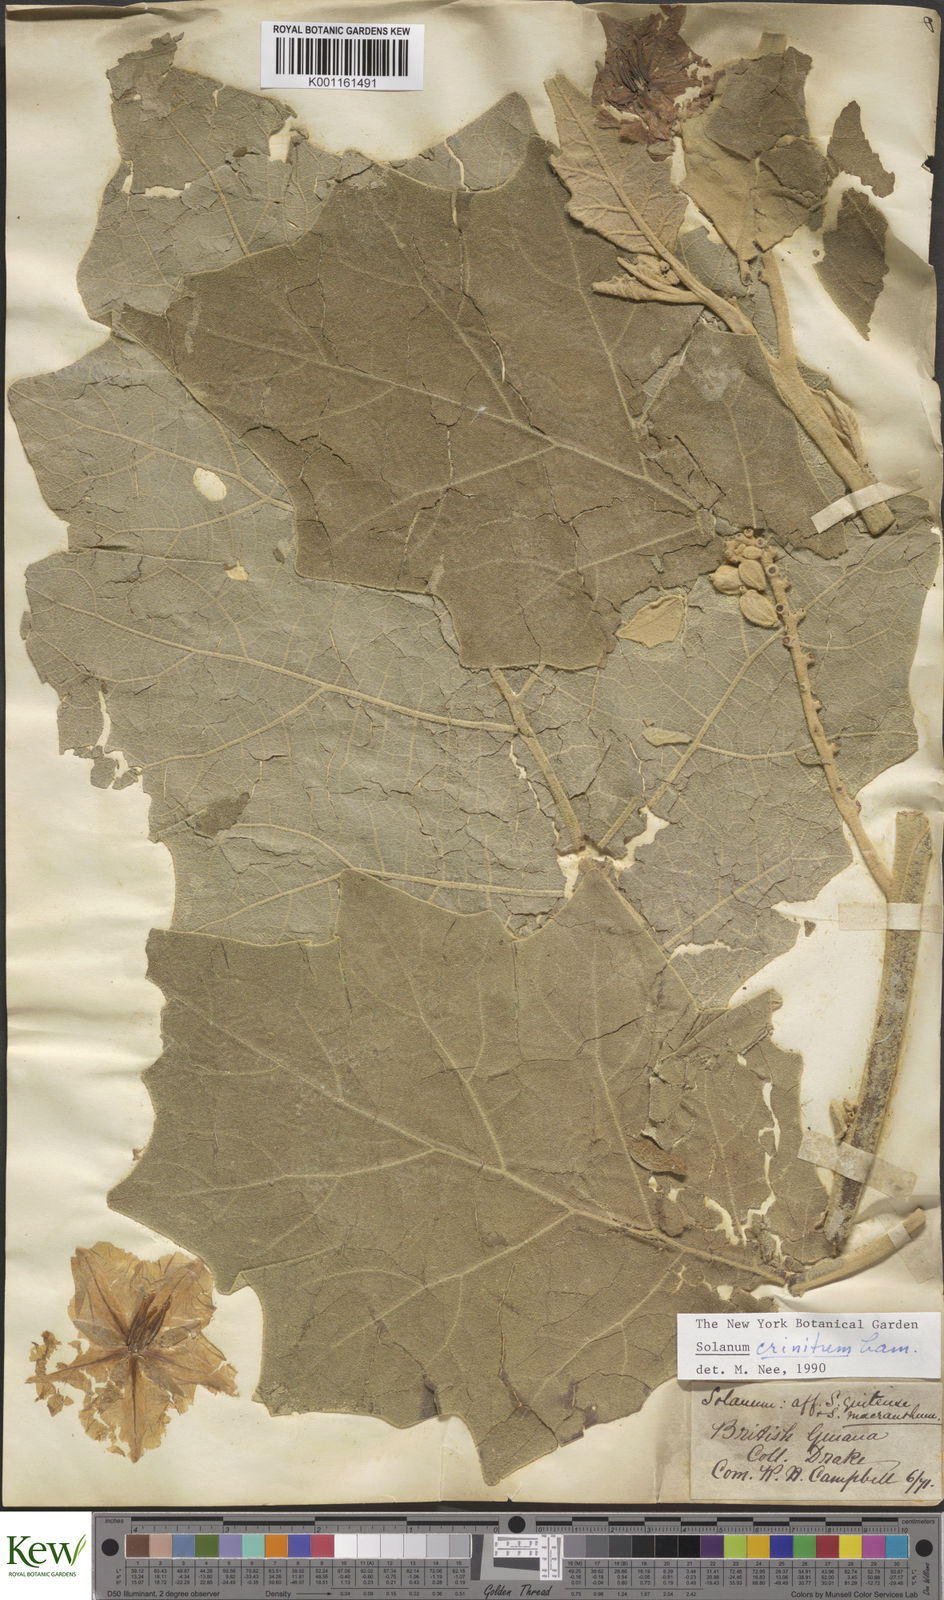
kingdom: Plantae
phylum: Tracheophyta
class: Magnoliopsida
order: Solanales
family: Solanaceae
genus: Solanum
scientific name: Solanum crinitum
